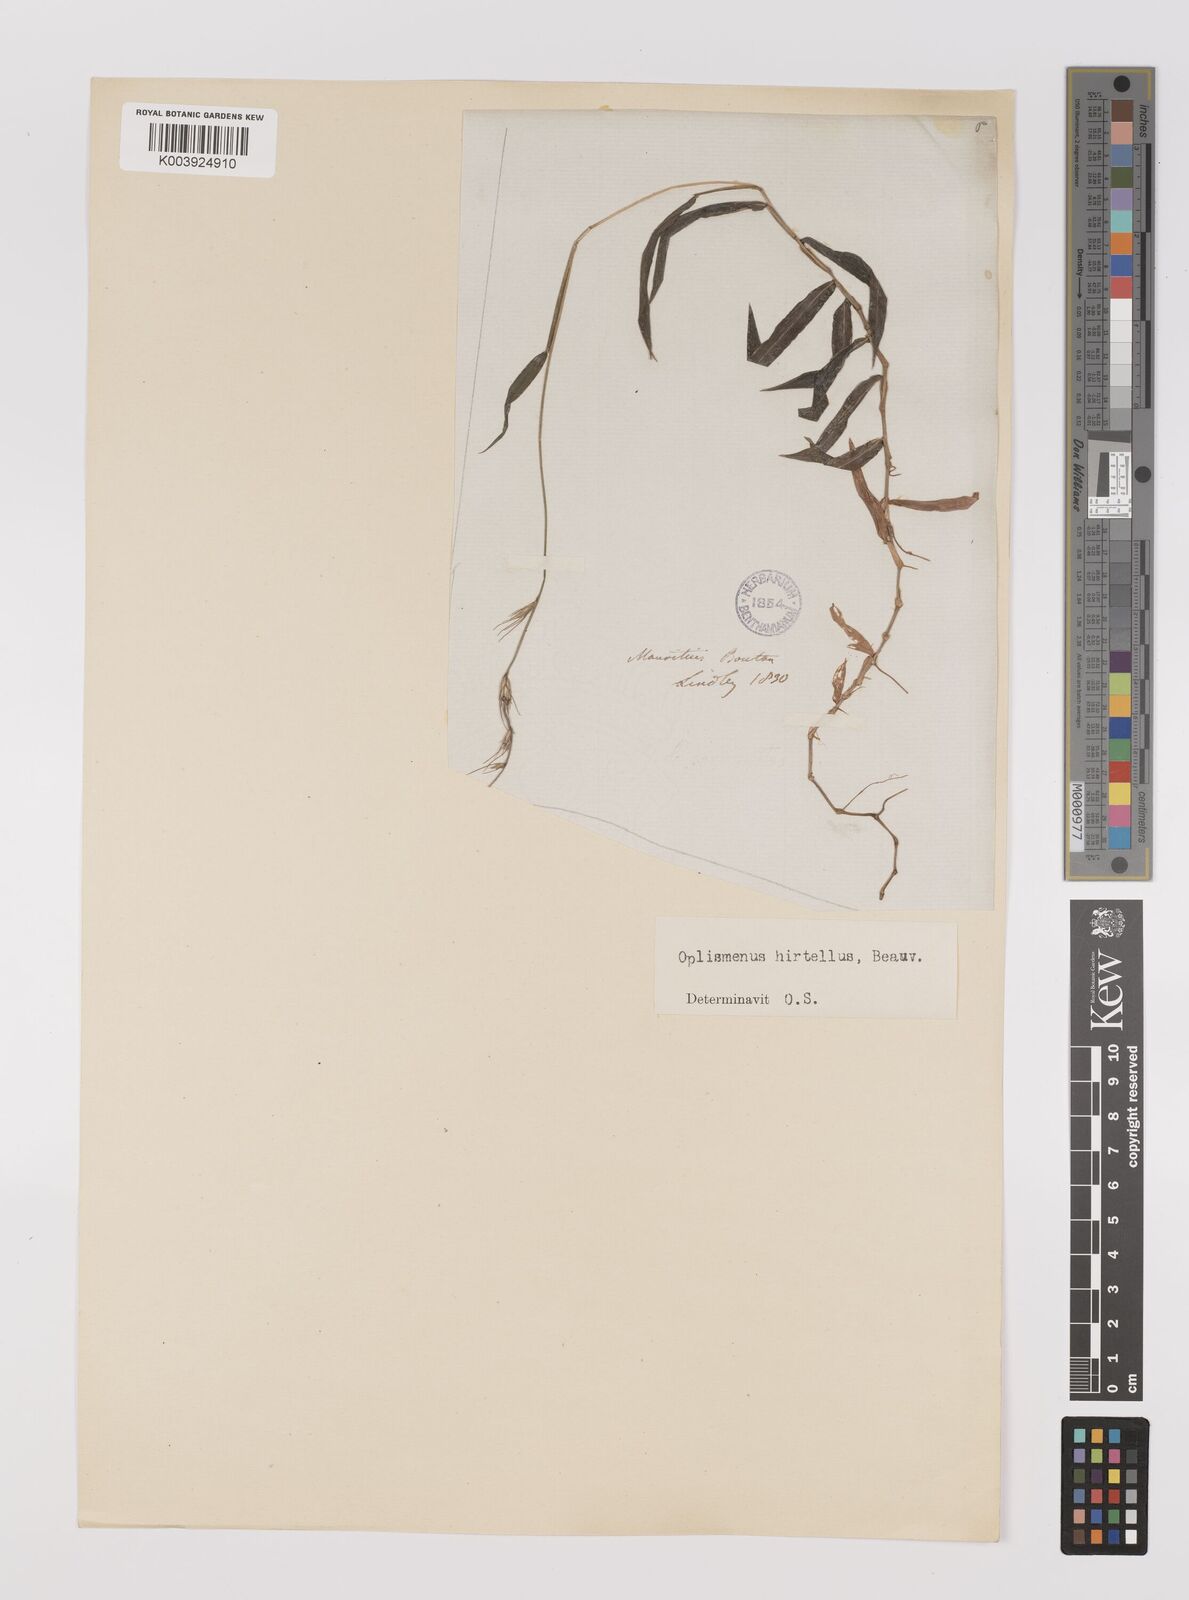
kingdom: Plantae
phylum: Tracheophyta
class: Liliopsida
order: Poales
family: Poaceae
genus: Oplismenus
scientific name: Oplismenus hirtellus
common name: Basketgrass
